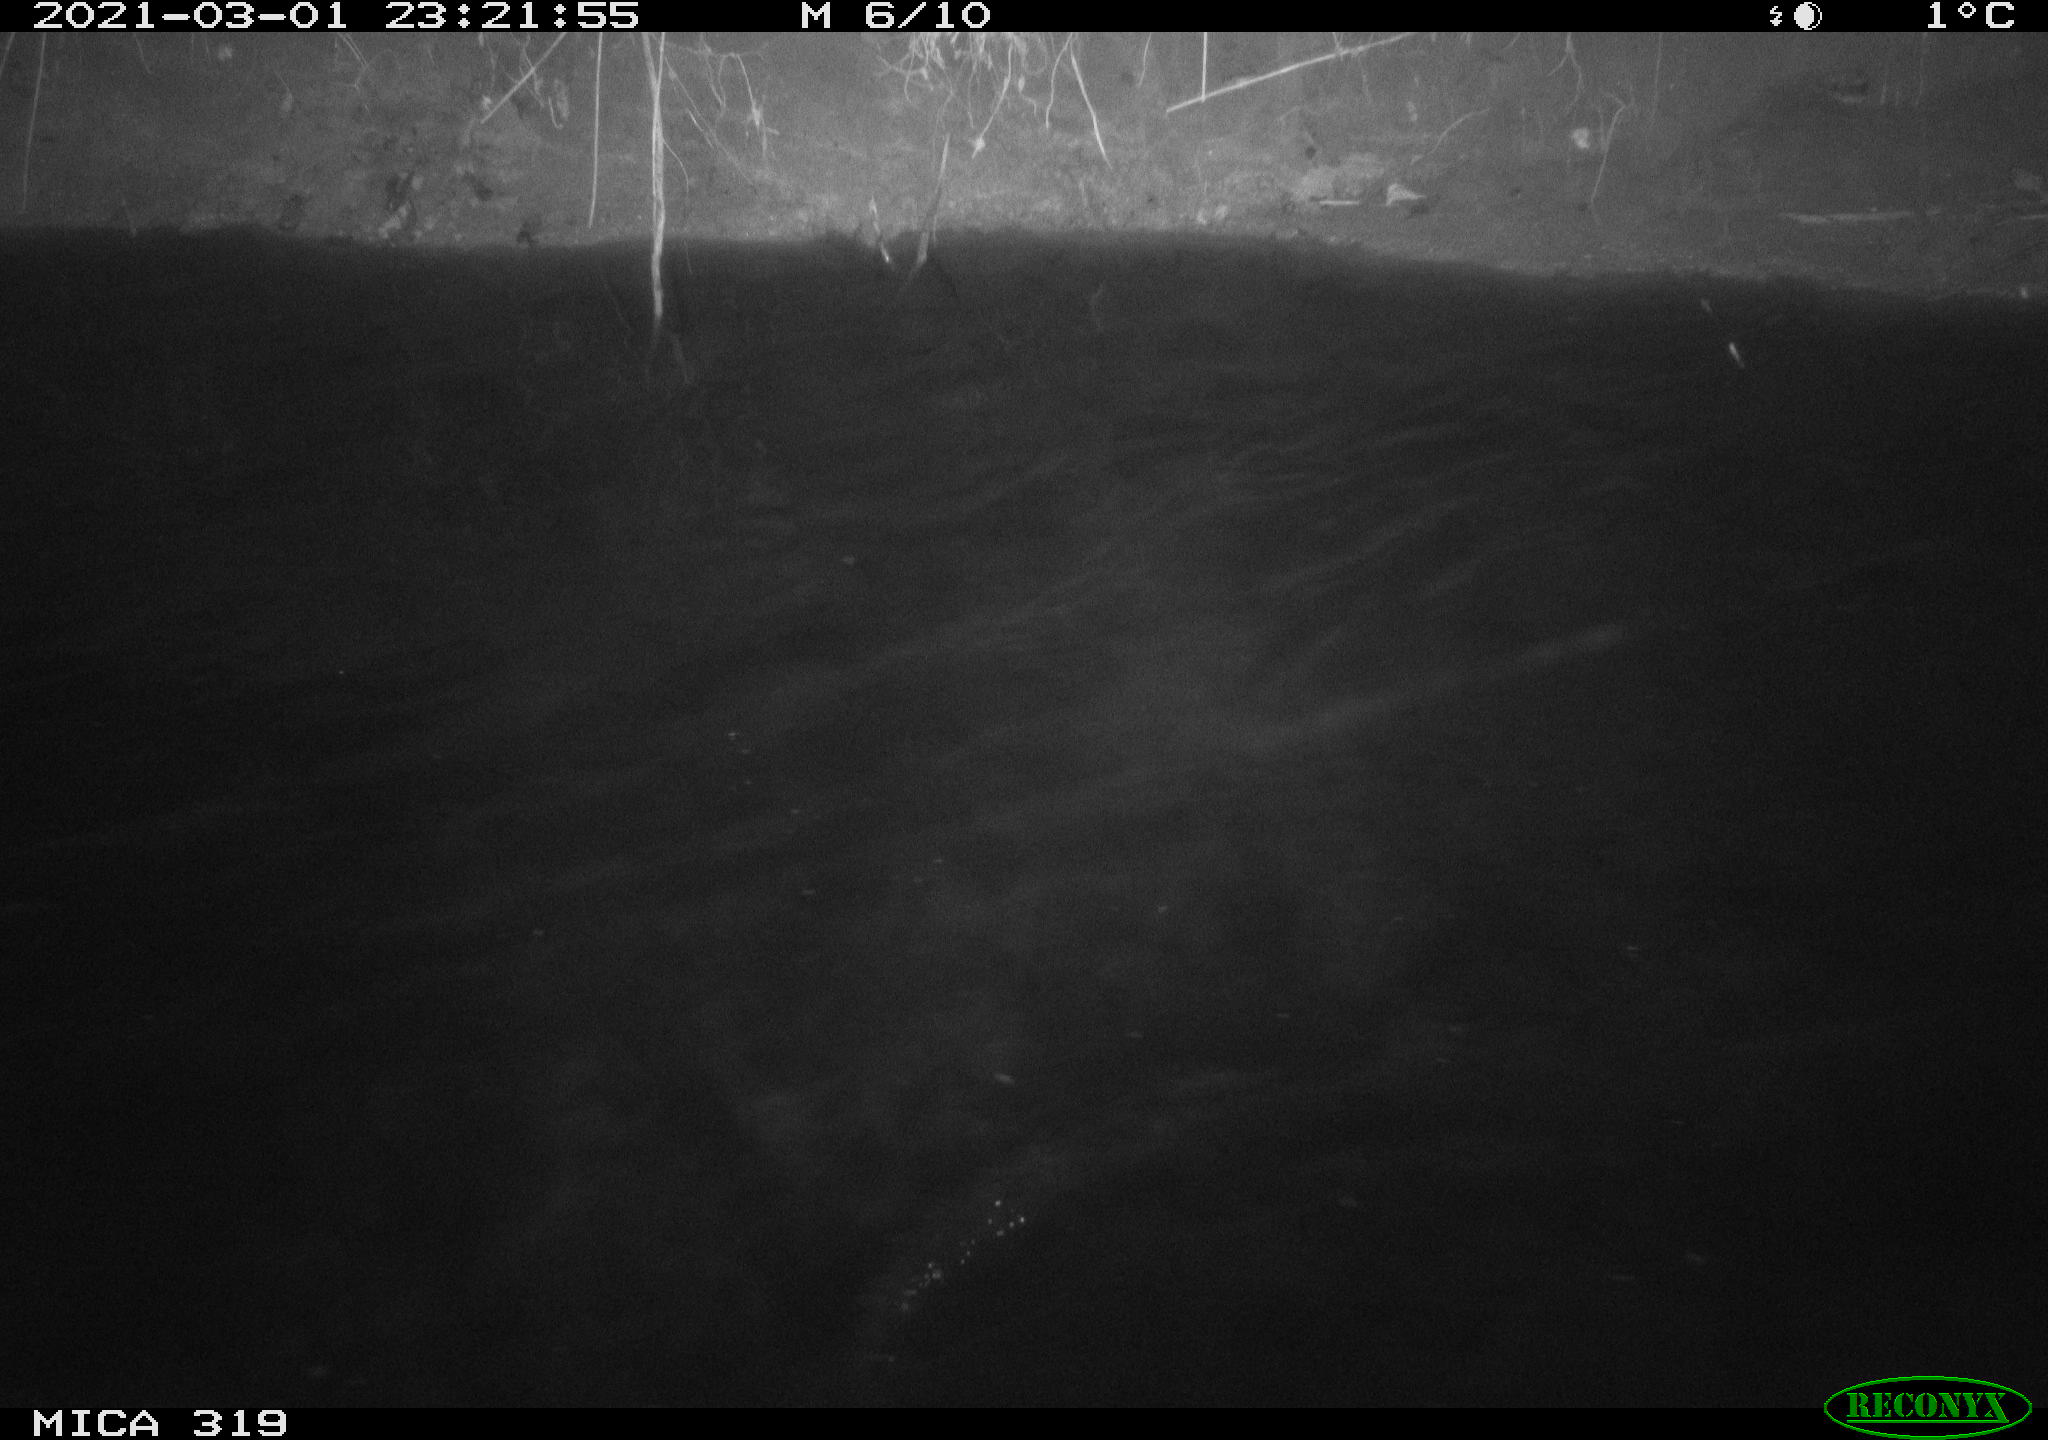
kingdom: Animalia
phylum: Chordata
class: Aves
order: Anseriformes
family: Anatidae
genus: Anas
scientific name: Anas platyrhynchos
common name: Mallard
